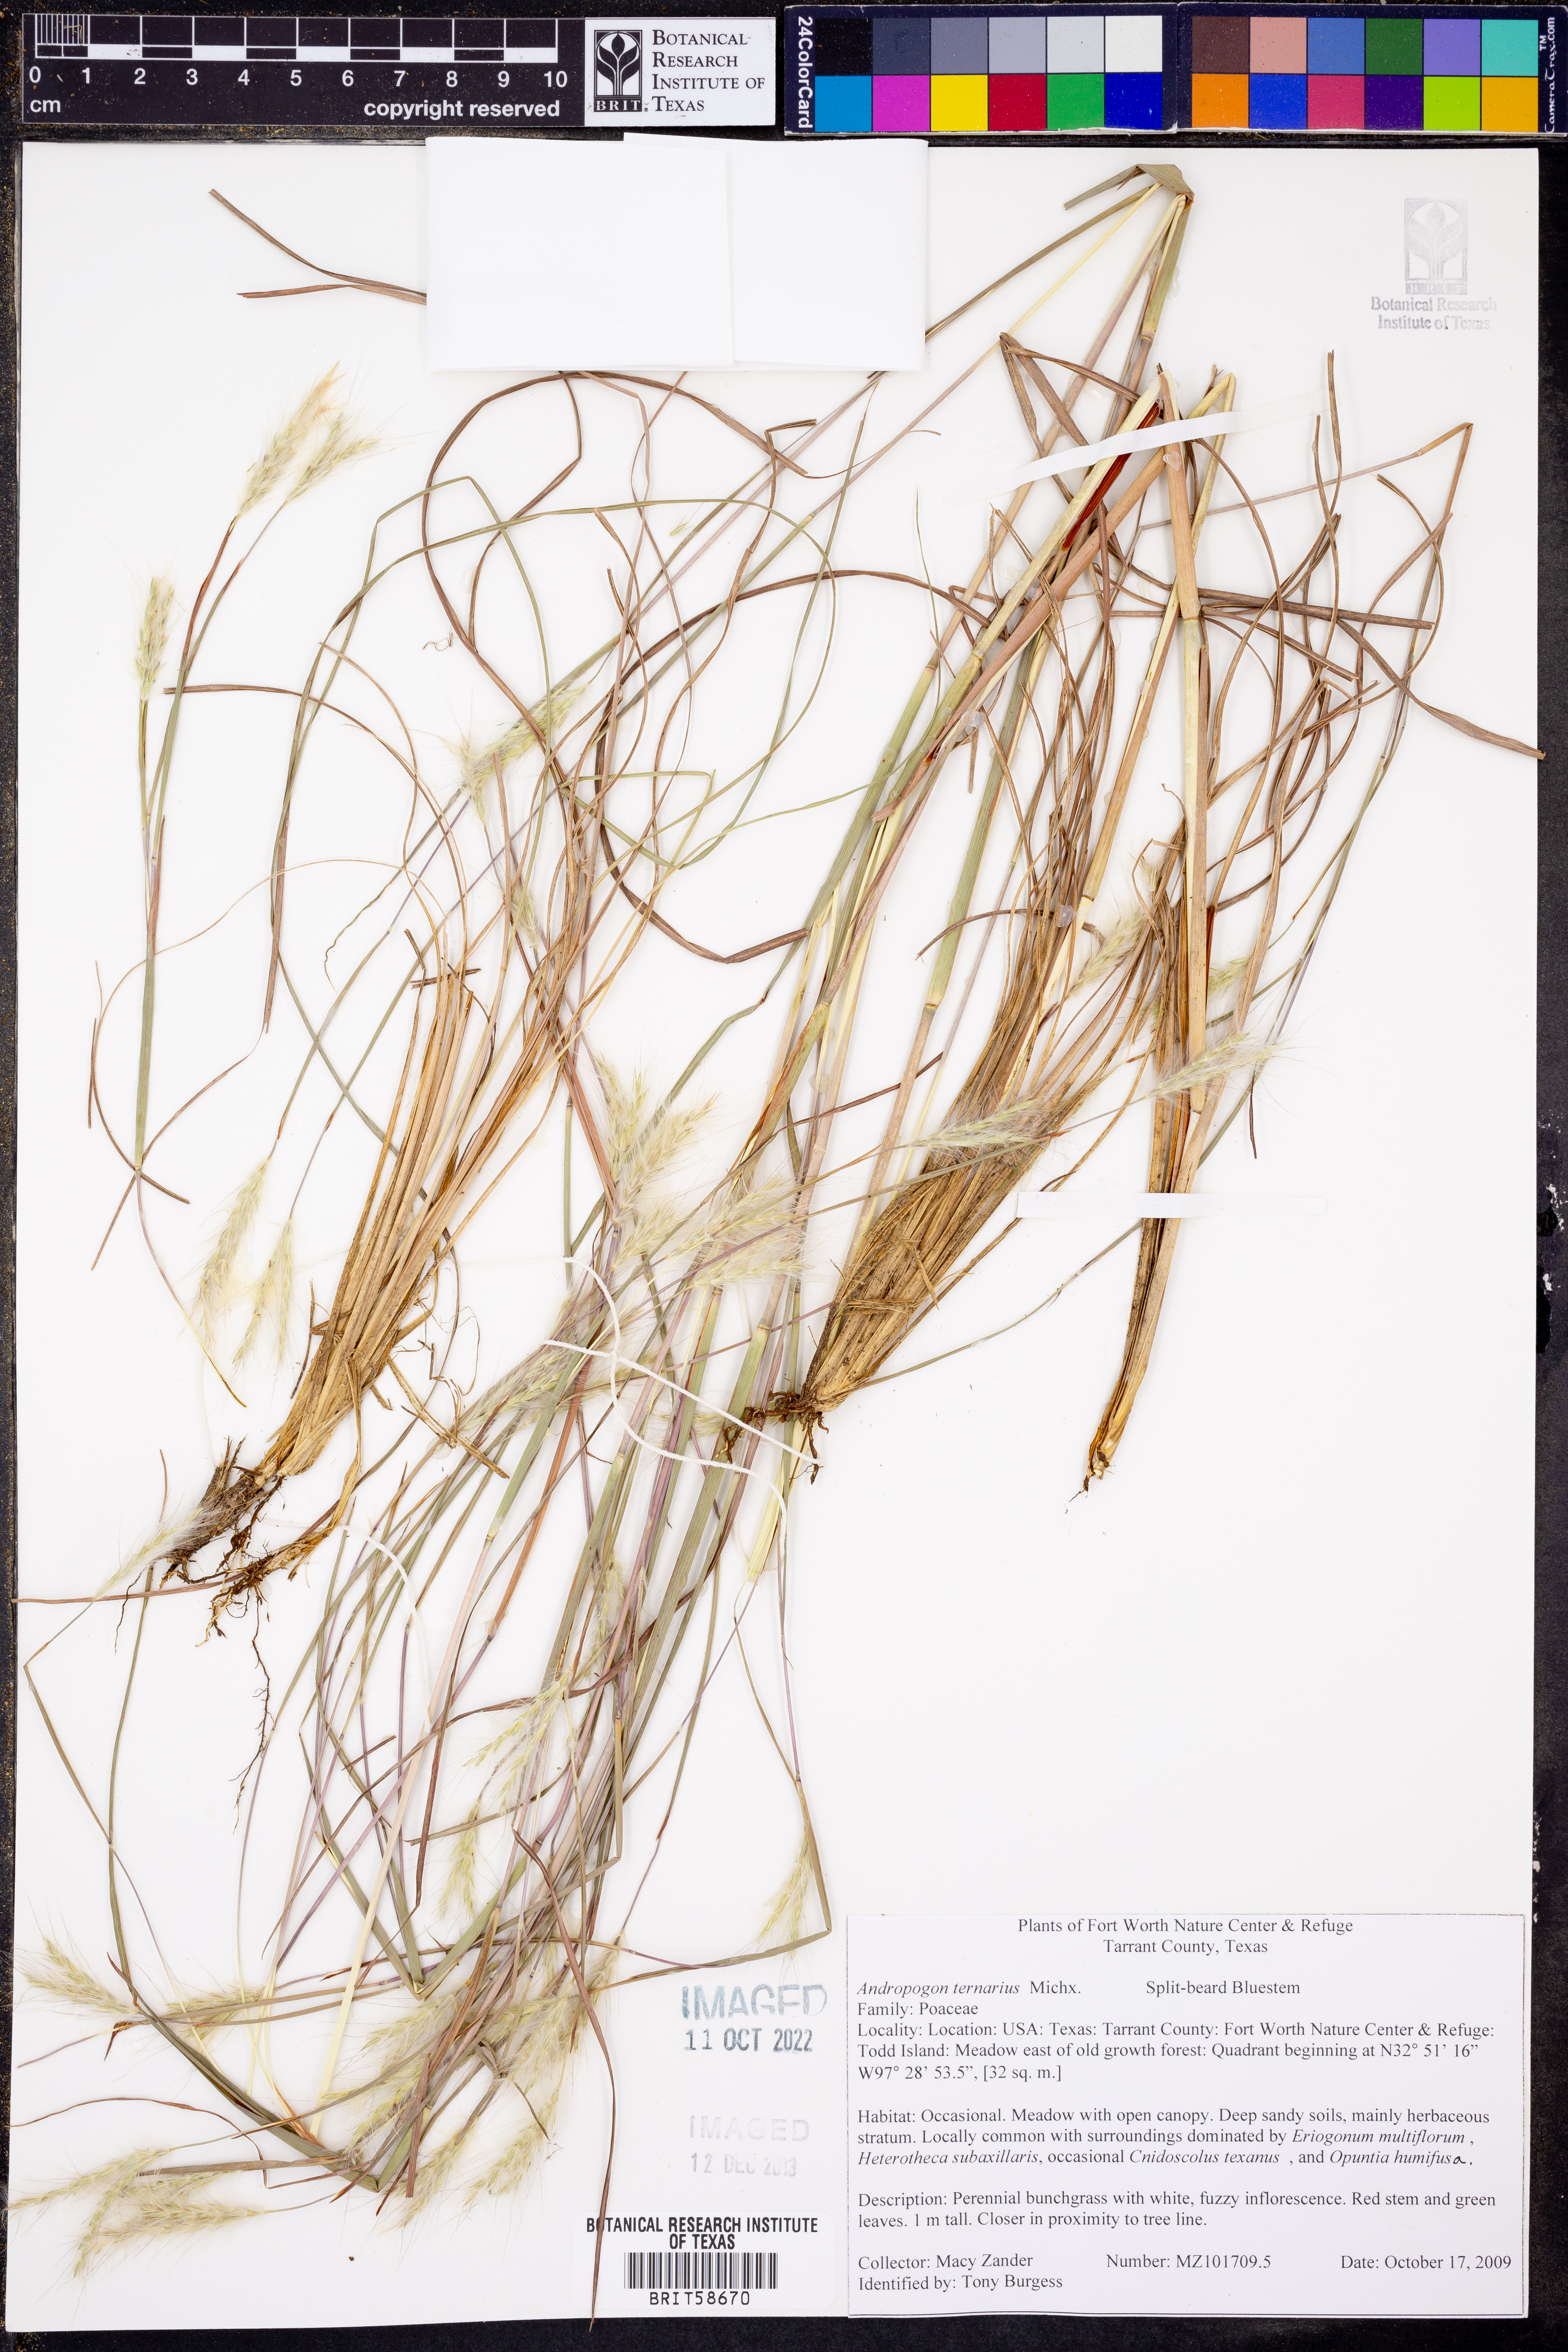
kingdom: Plantae
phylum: Tracheophyta
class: Liliopsida
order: Poales
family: Poaceae
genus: Andropogon
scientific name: Andropogon ternarius
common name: Split bluestem
